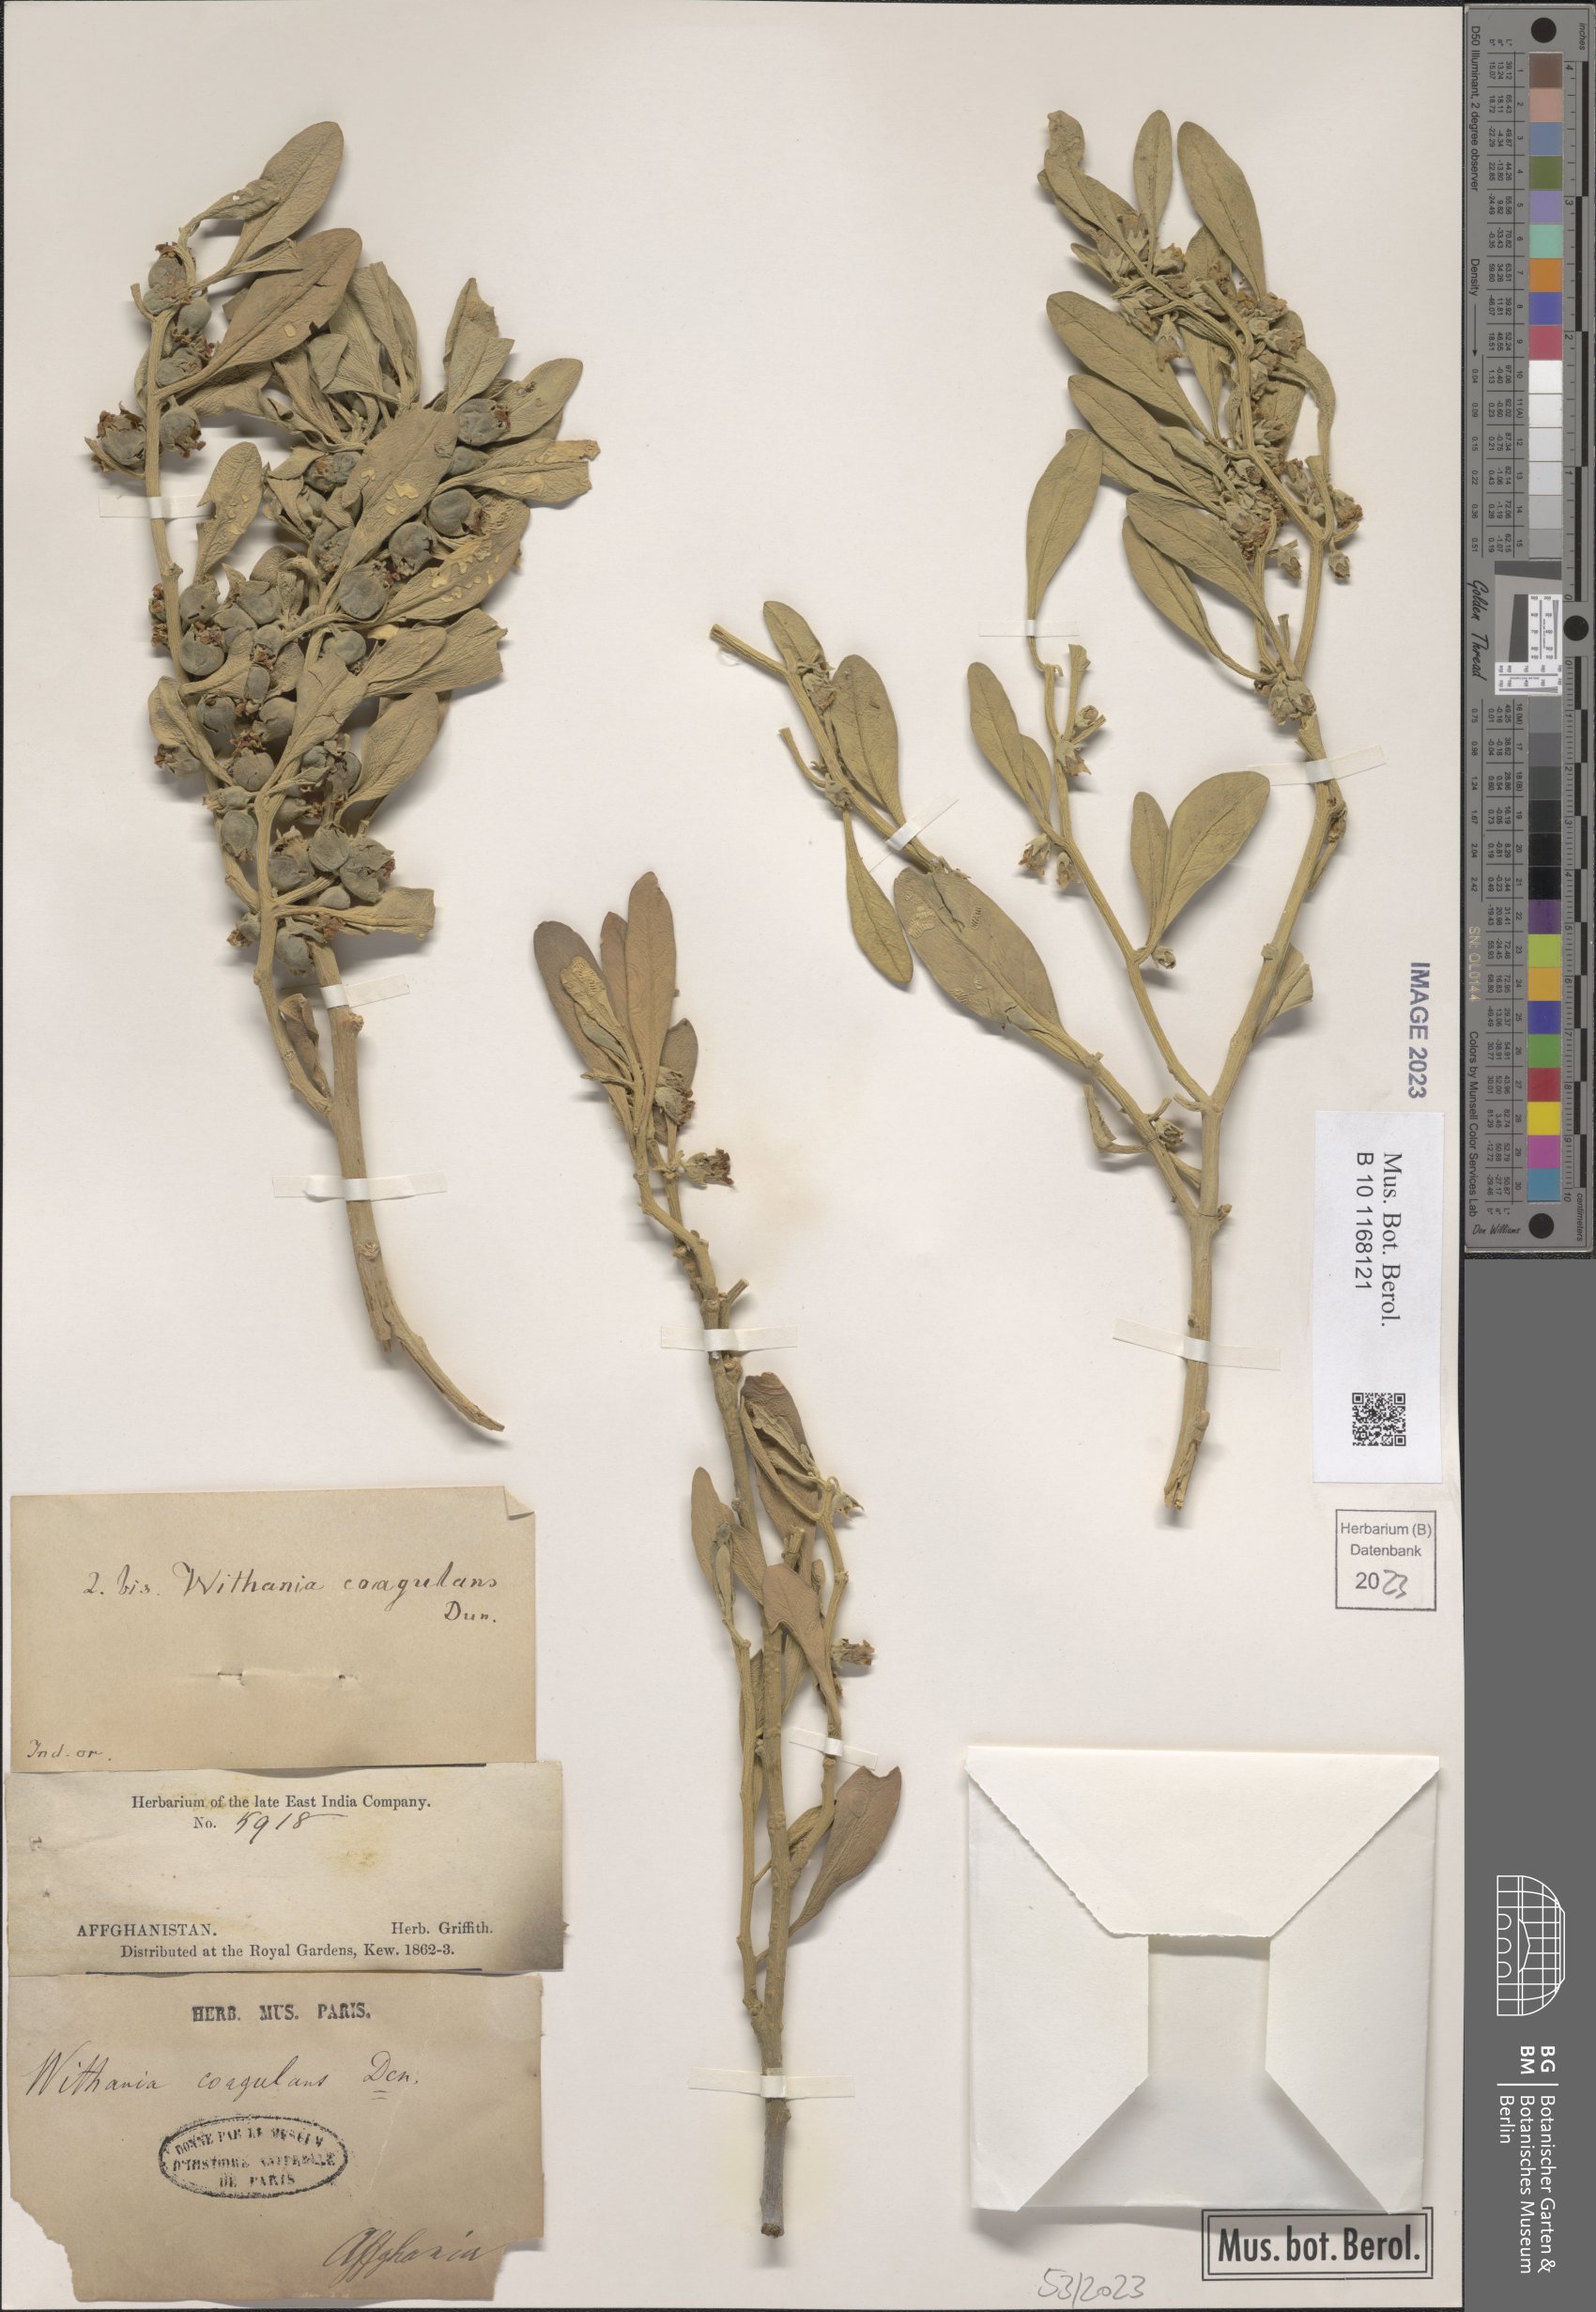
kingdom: Plantae
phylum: Tracheophyta
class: Magnoliopsida
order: Solanales
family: Solanaceae
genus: Withania
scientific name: Withania coagulans
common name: Vegetable rennet
